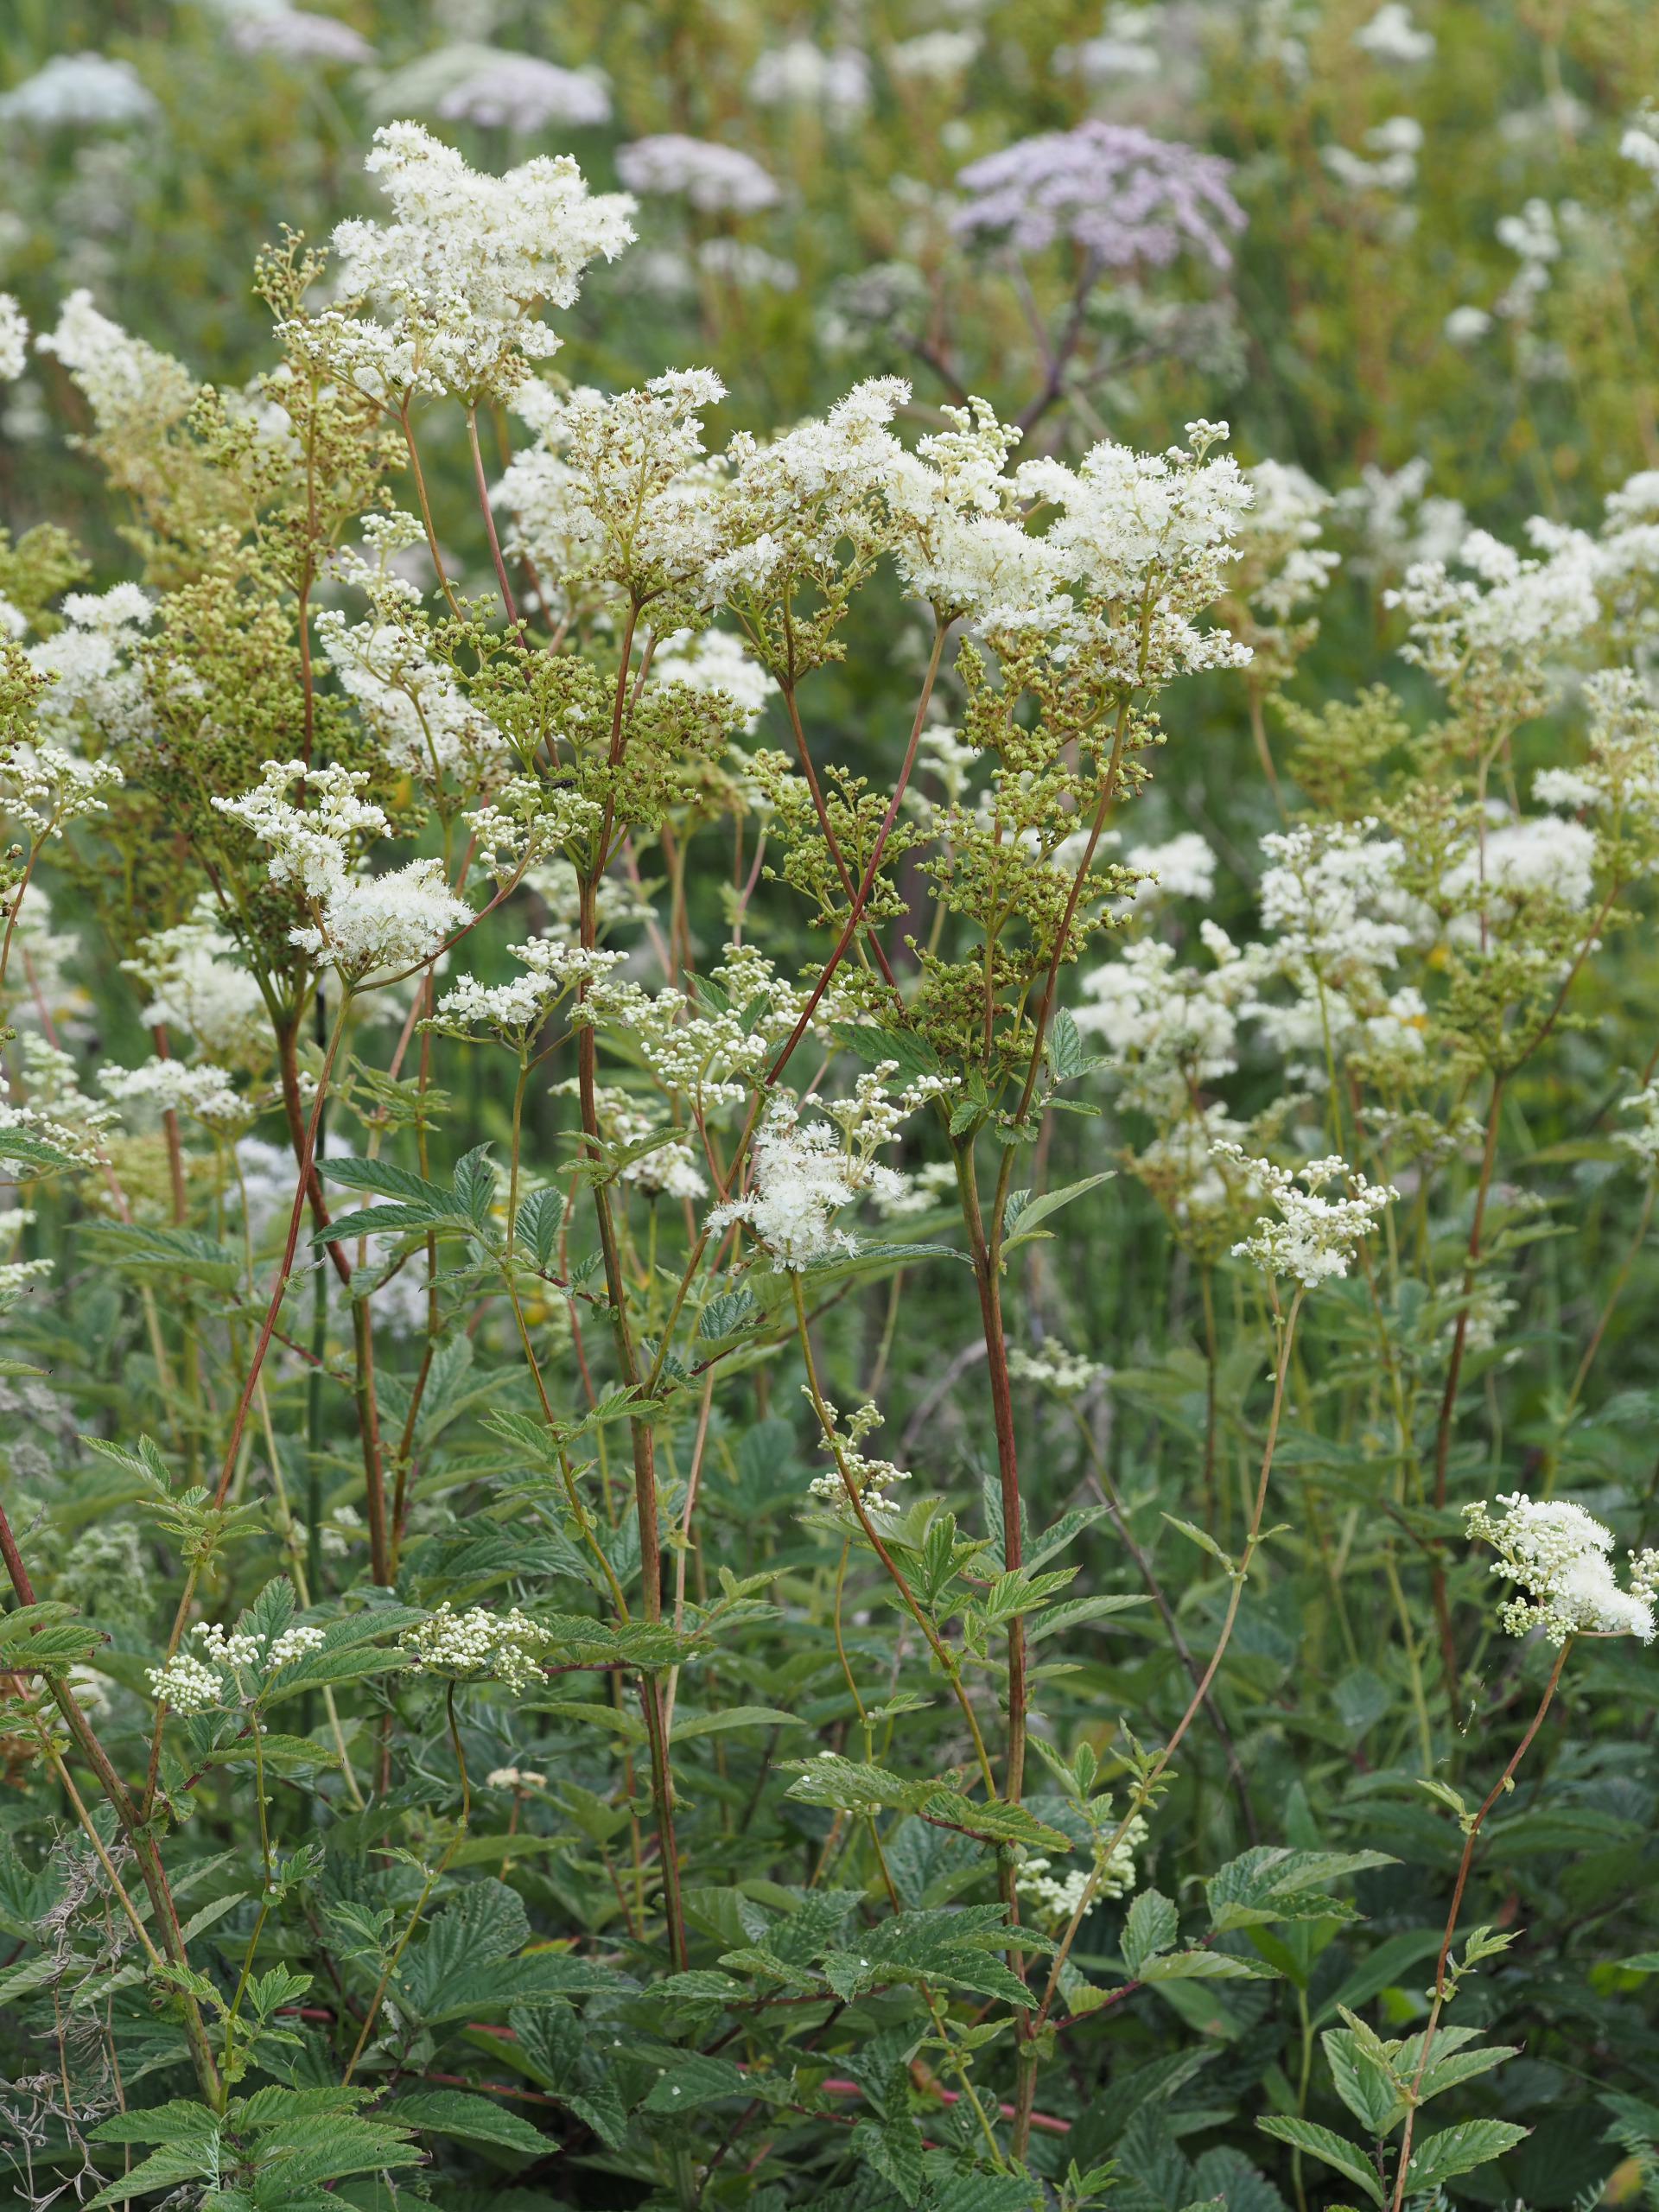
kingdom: Plantae
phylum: Tracheophyta
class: Magnoliopsida
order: Rosales
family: Rosaceae
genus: Filipendula
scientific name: Filipendula ulmaria
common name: Almindelig mjødurt
